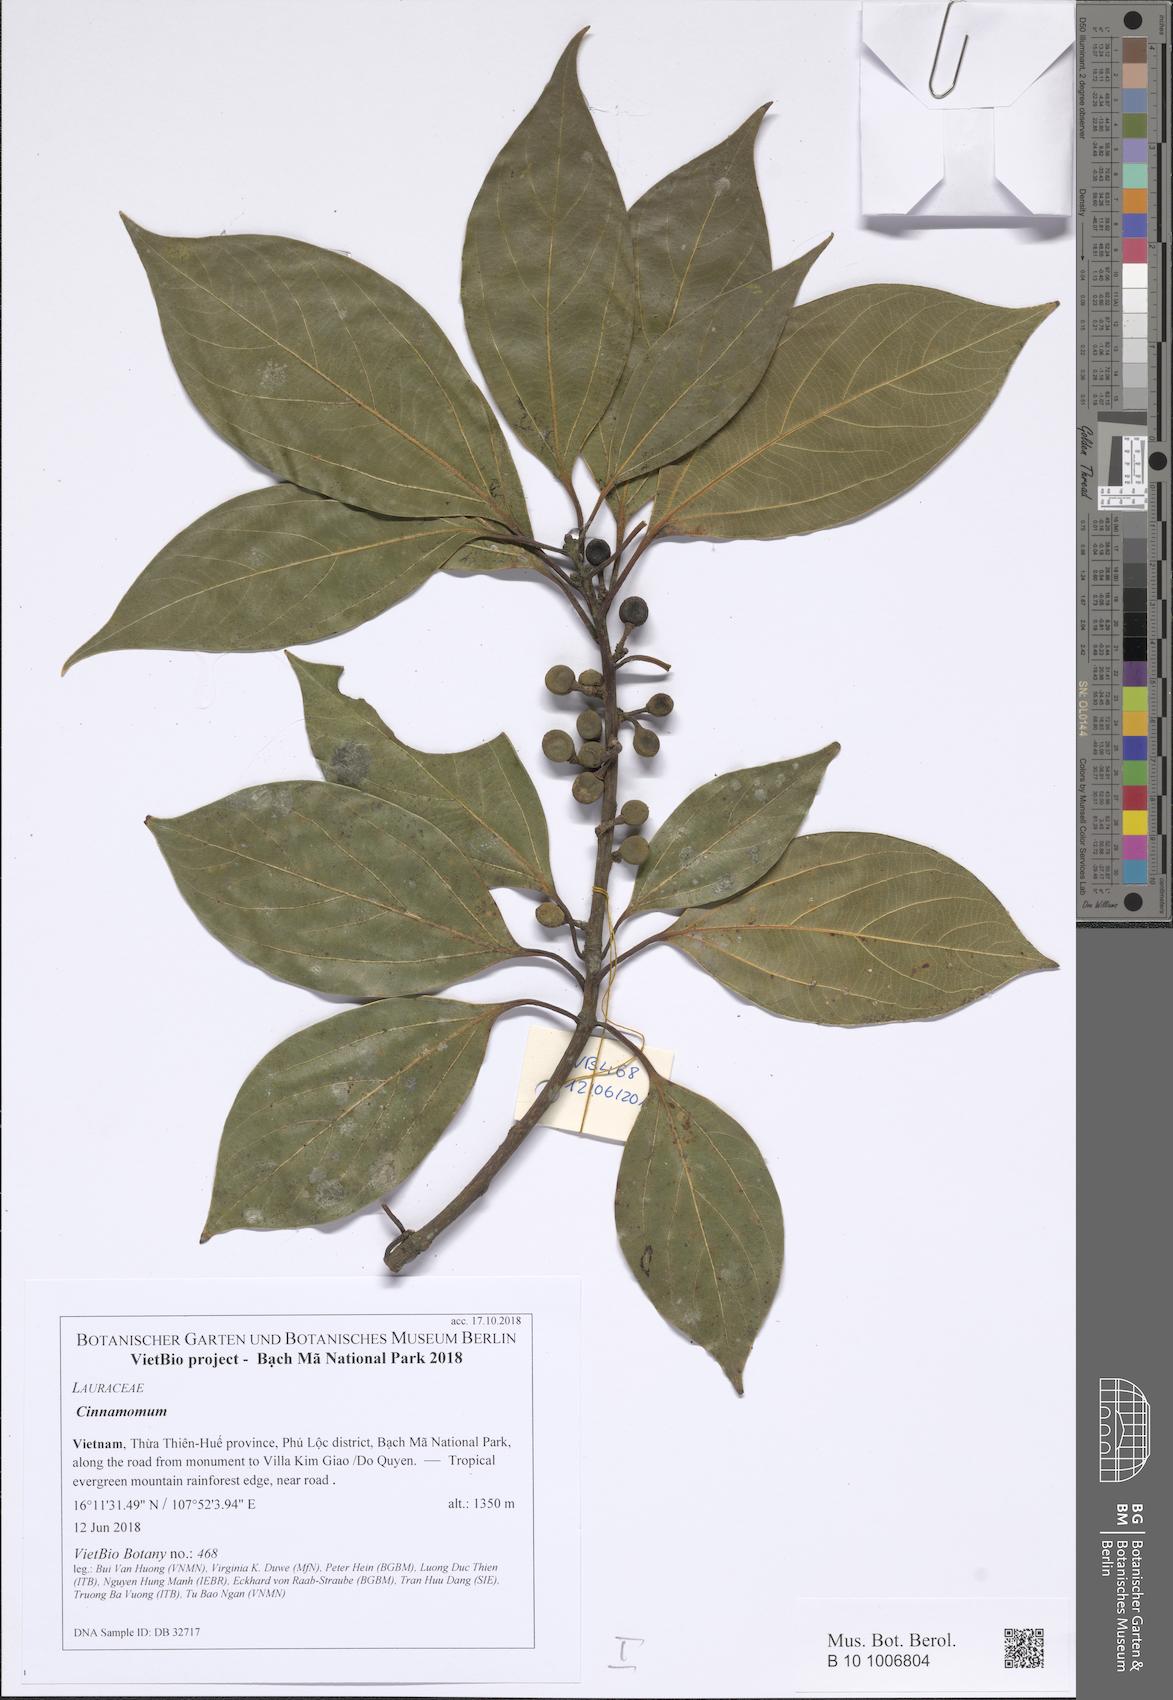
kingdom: Plantae
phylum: Tracheophyta
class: Magnoliopsida
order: Laurales
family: Lauraceae
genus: Lindera
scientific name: Lindera supracostata
